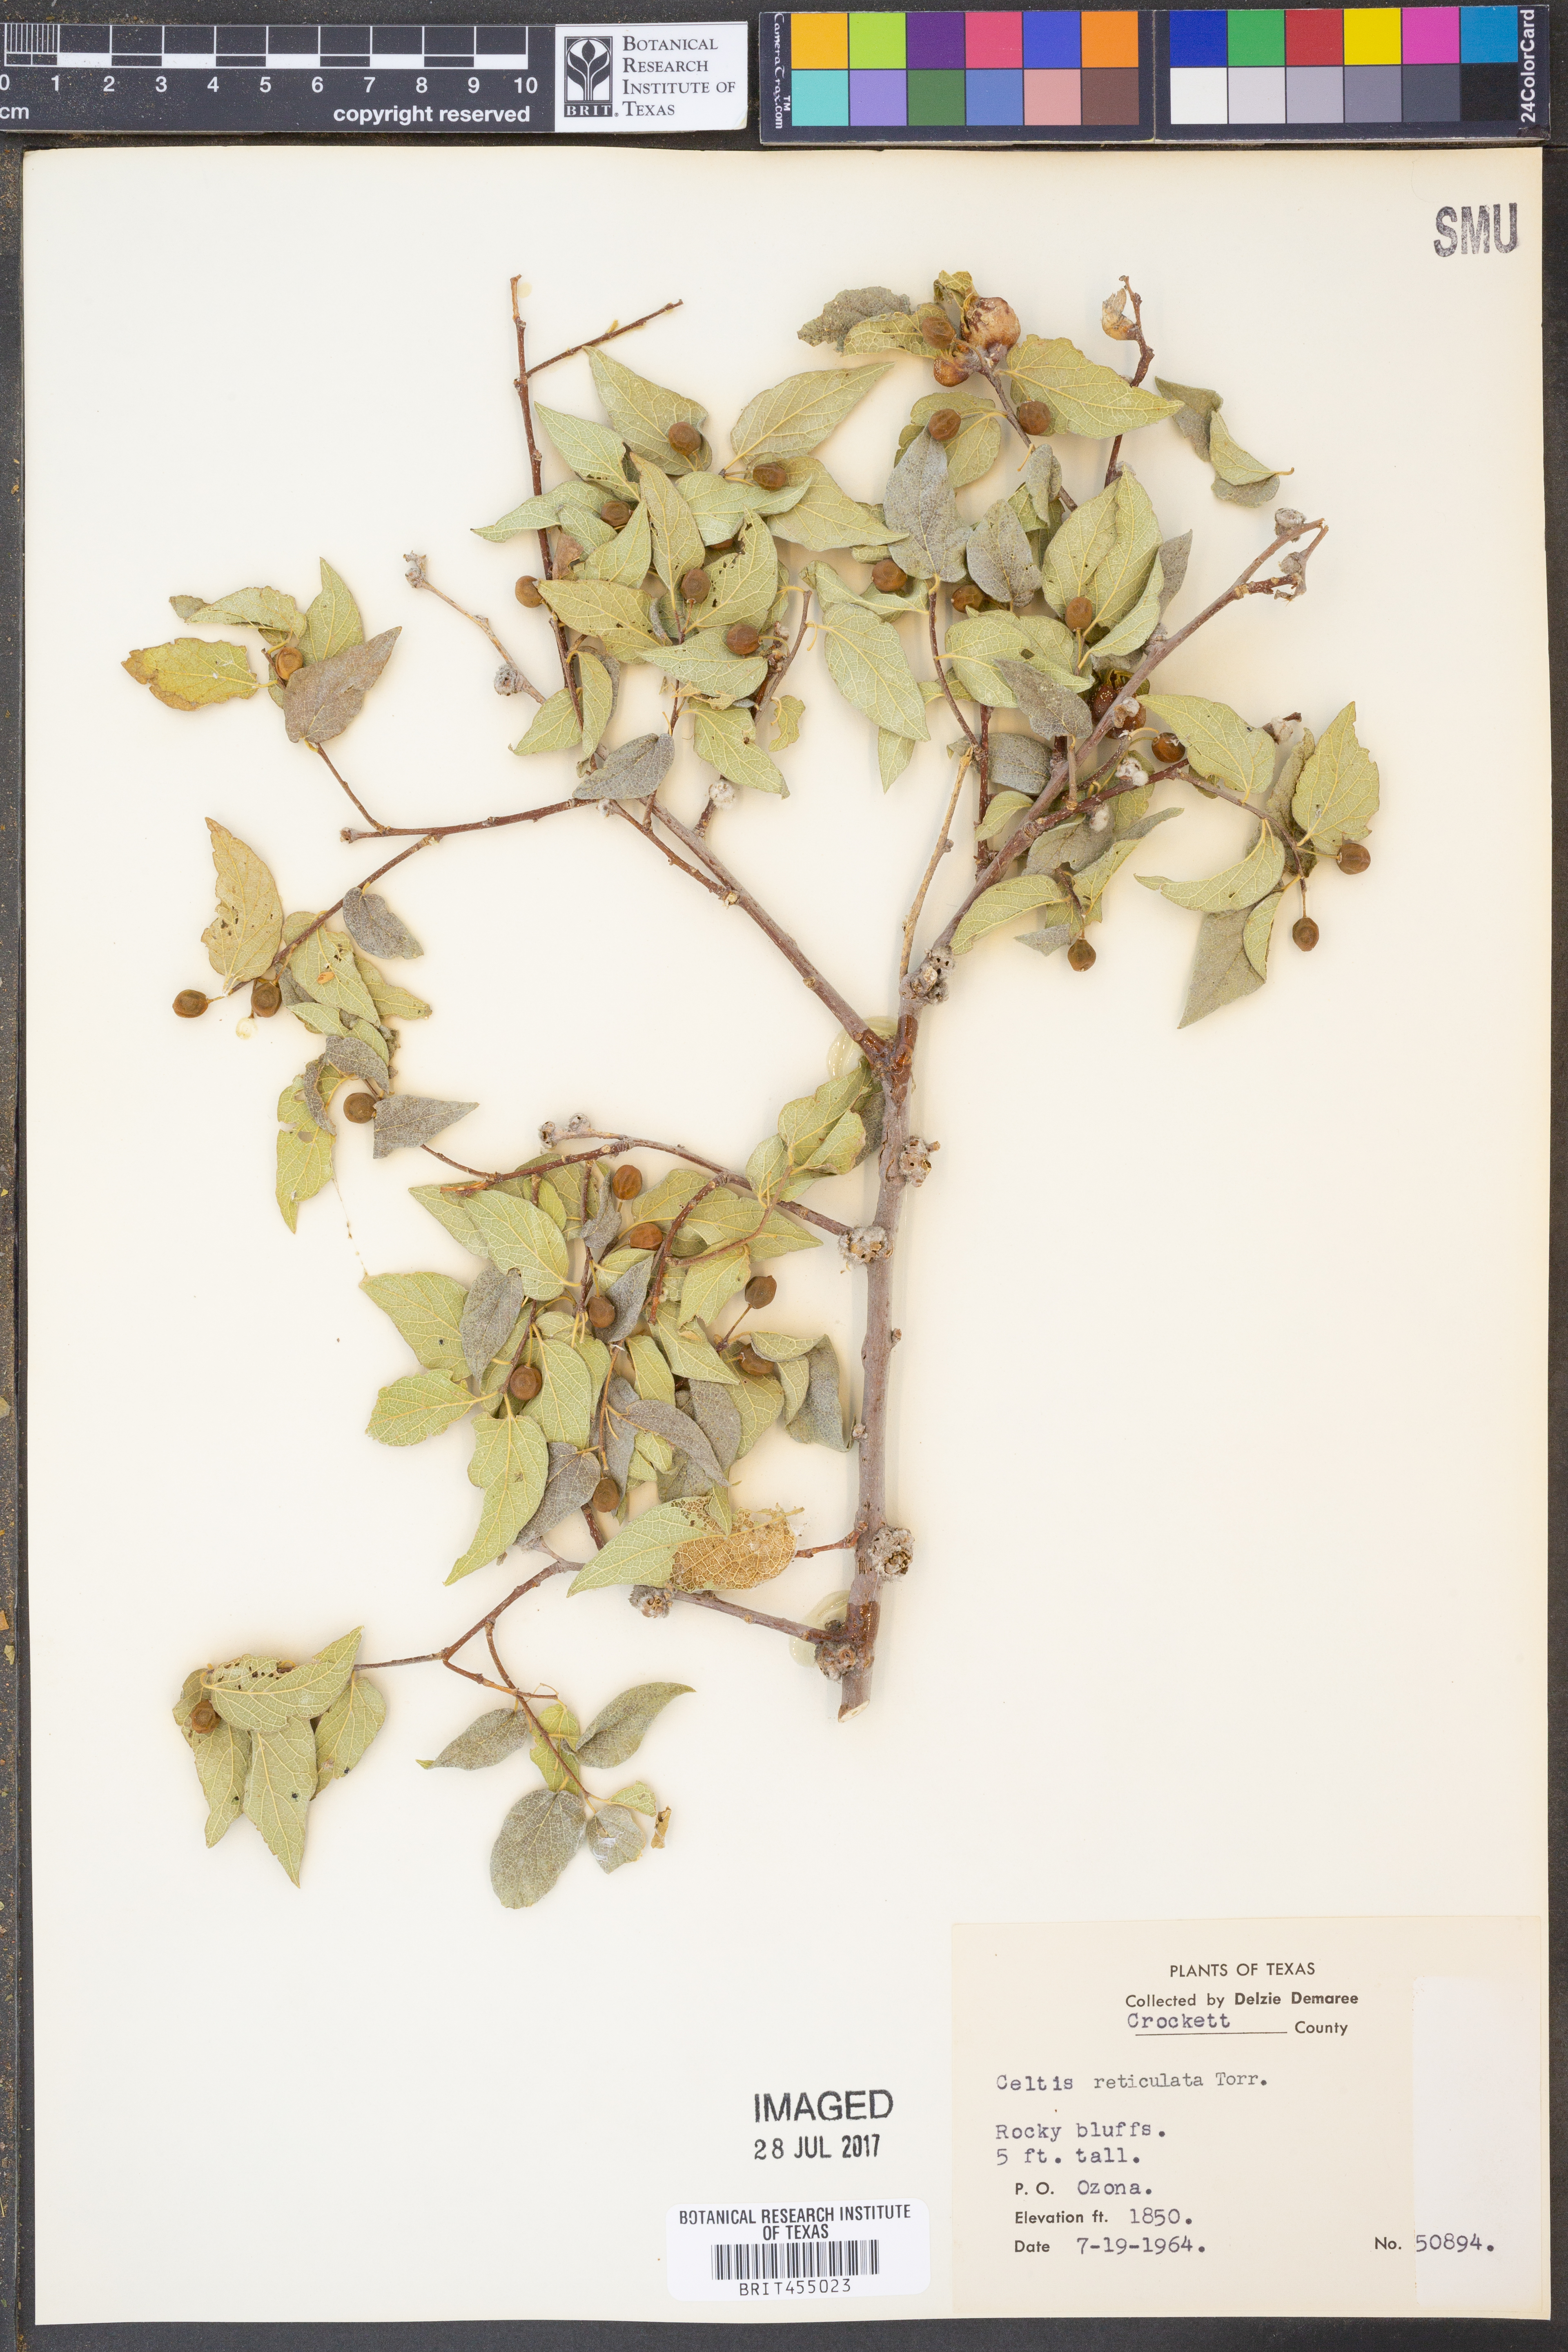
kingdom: Plantae
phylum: Tracheophyta
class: Magnoliopsida
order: Rosales
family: Cannabaceae
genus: Celtis
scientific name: Celtis reticulata
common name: Netleaf hackberry
